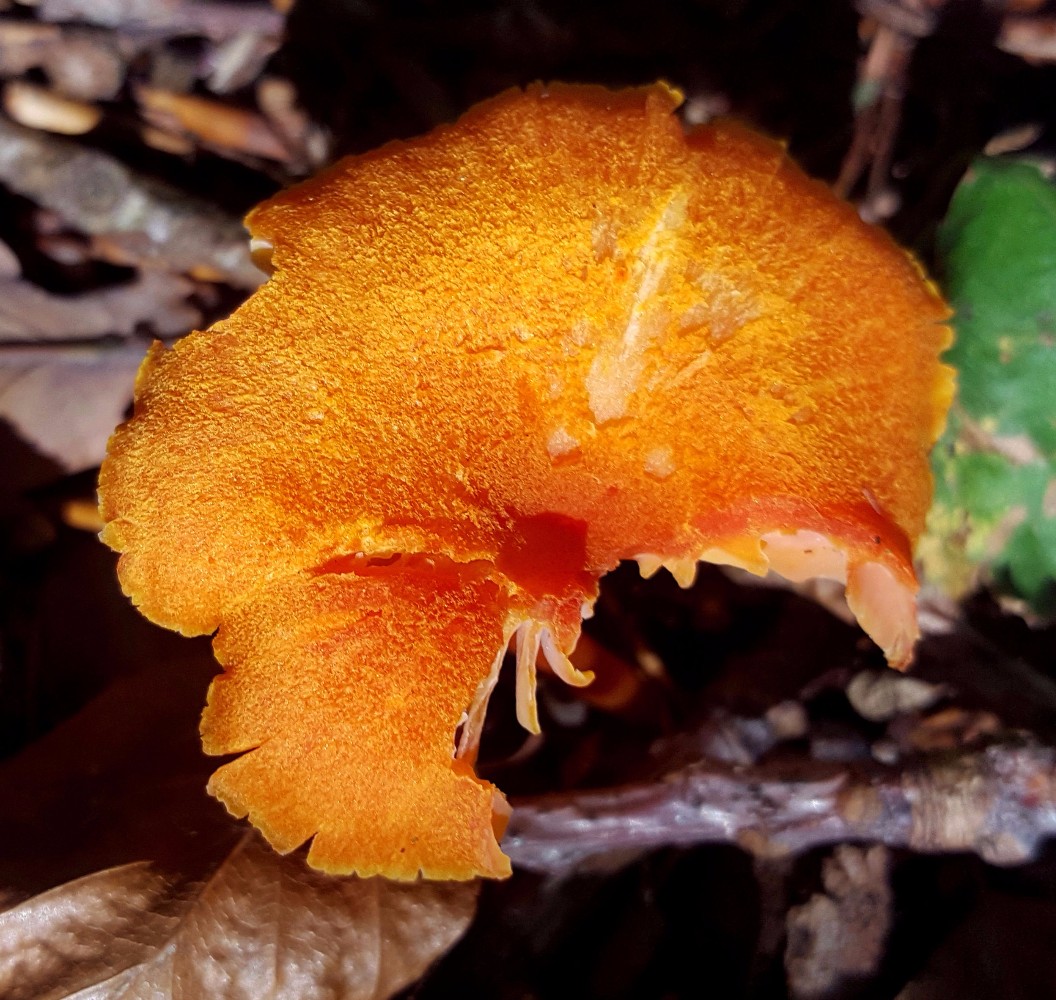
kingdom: Fungi
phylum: Basidiomycota
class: Agaricomycetes
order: Agaricales
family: Hygrophoraceae
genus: Hygrocybe
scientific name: Hygrocybe miniata
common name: mønje-vokshat
